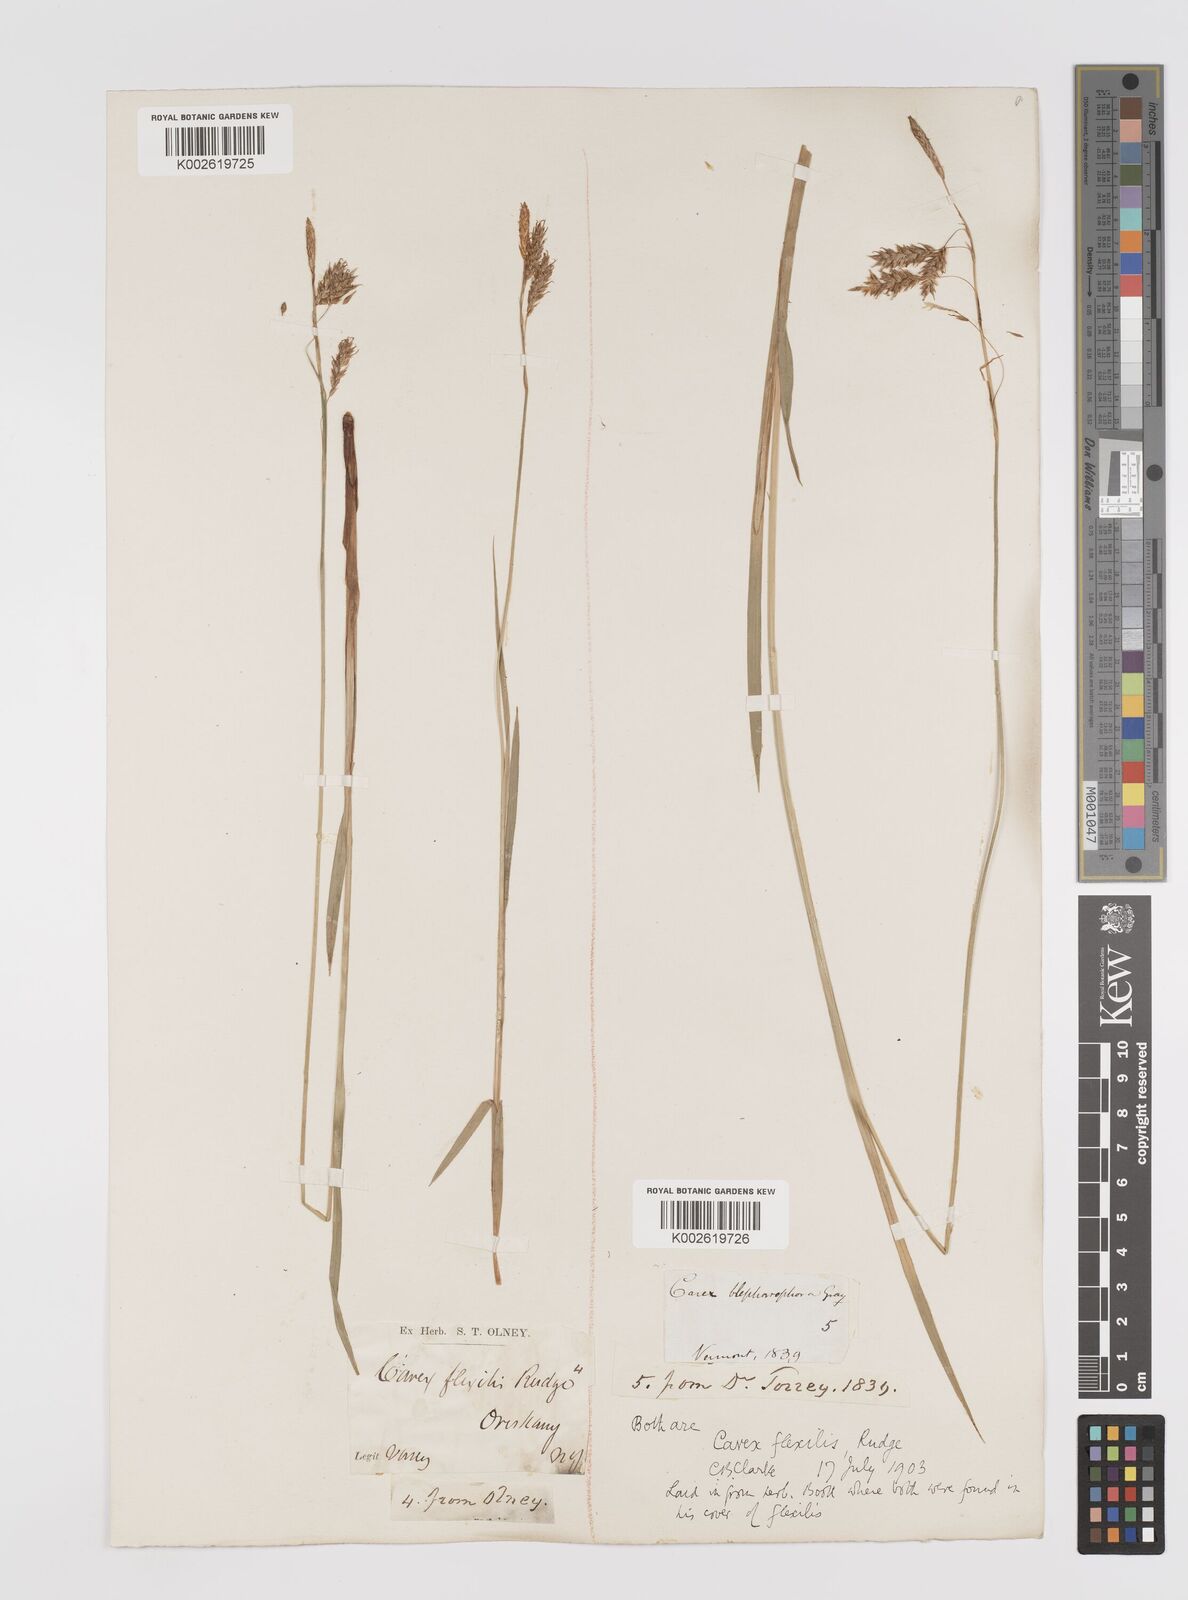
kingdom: Plantae
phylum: Tracheophyta
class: Liliopsida
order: Poales
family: Cyperaceae
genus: Carex
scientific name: Carex castanea
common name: Chestnut sedge
